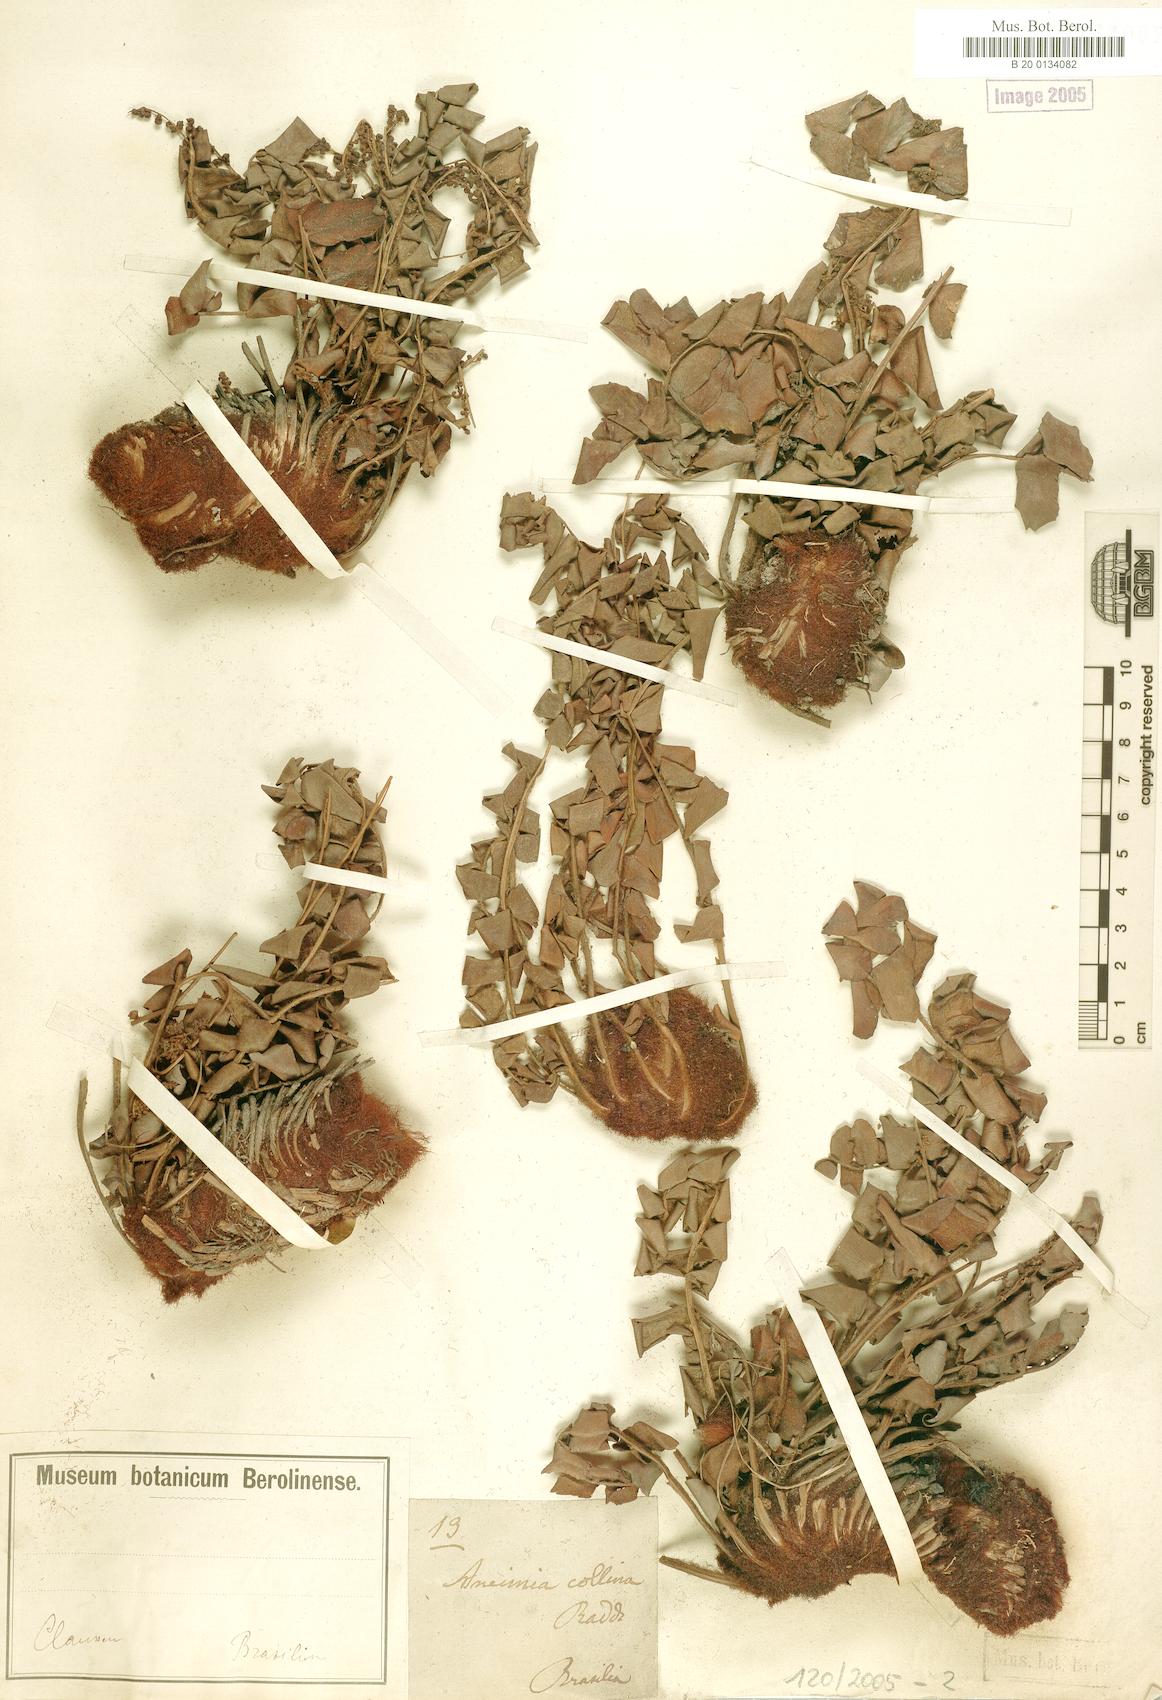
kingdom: Plantae
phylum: Tracheophyta
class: Polypodiopsida
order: Schizaeales
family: Anemiaceae
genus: Anemia
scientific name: Anemia gomesii
